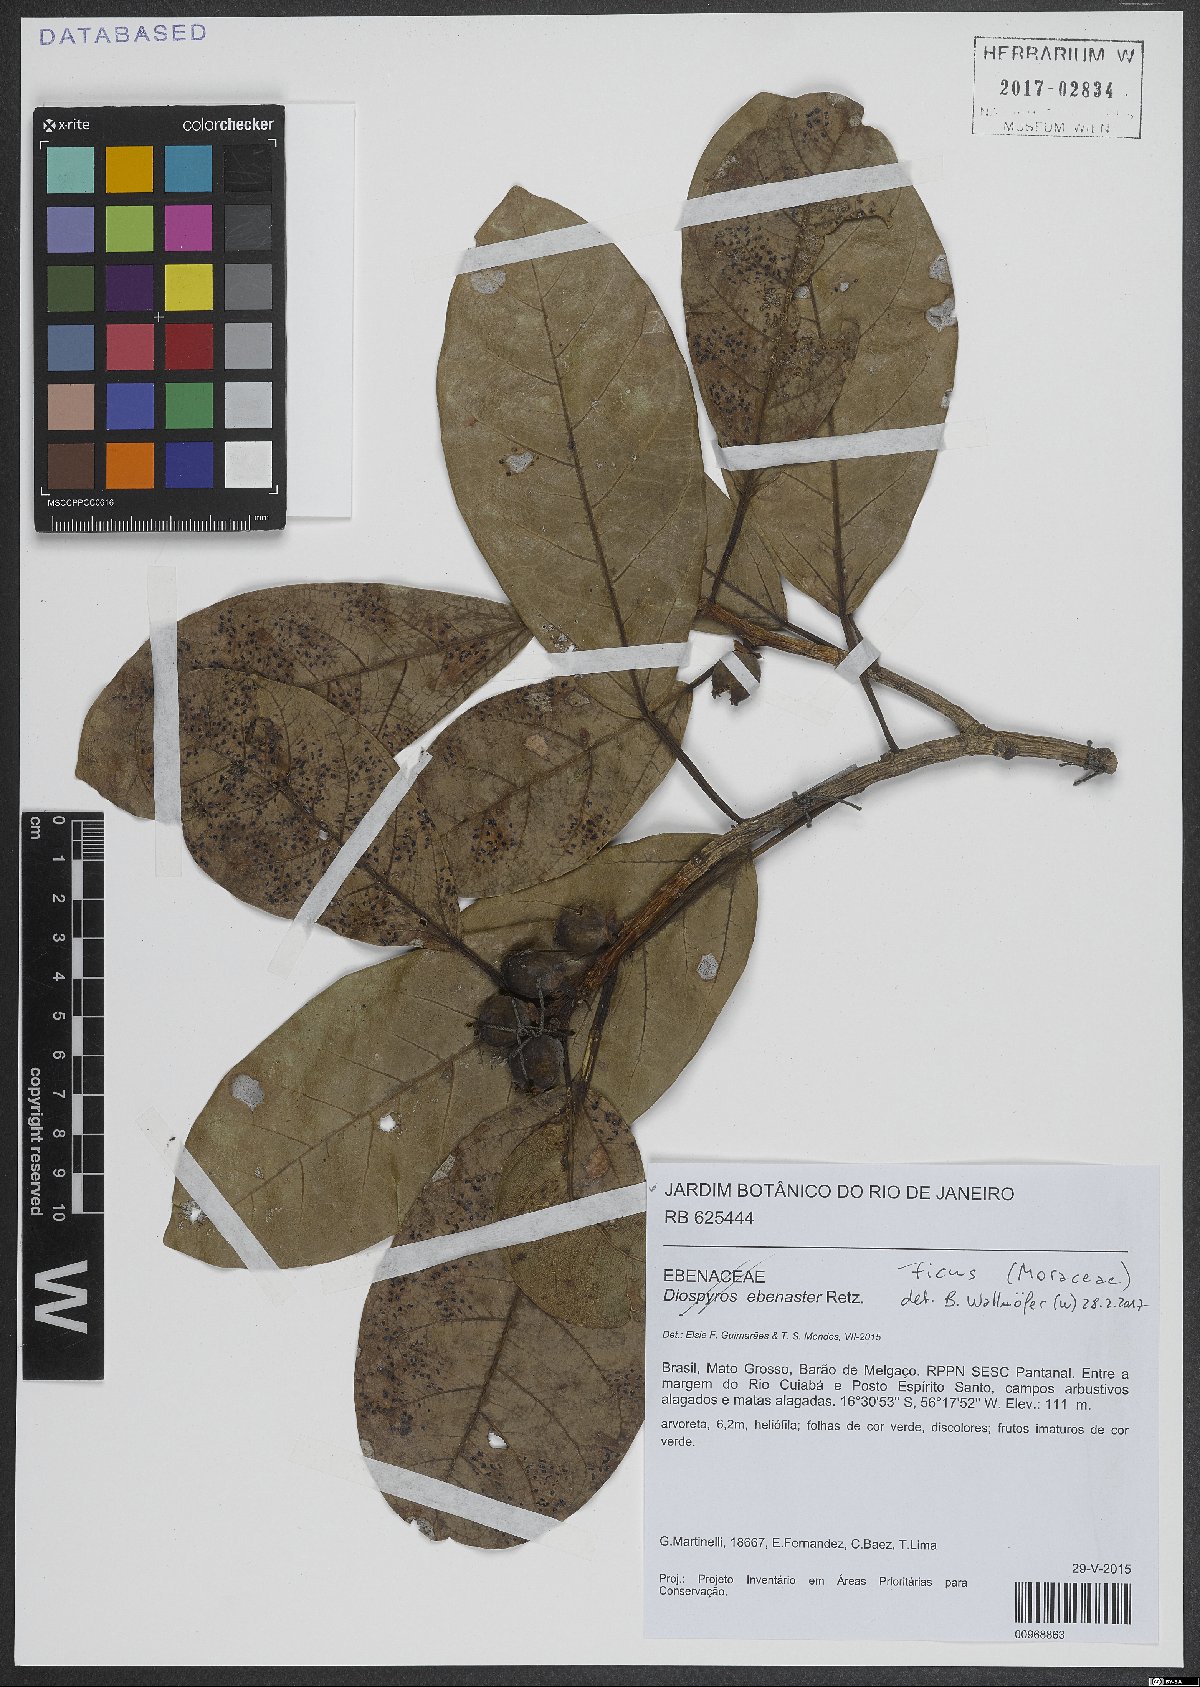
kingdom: Plantae
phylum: Tracheophyta
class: Magnoliopsida
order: Rosales
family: Moraceae
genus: Ficus
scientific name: Ficus
